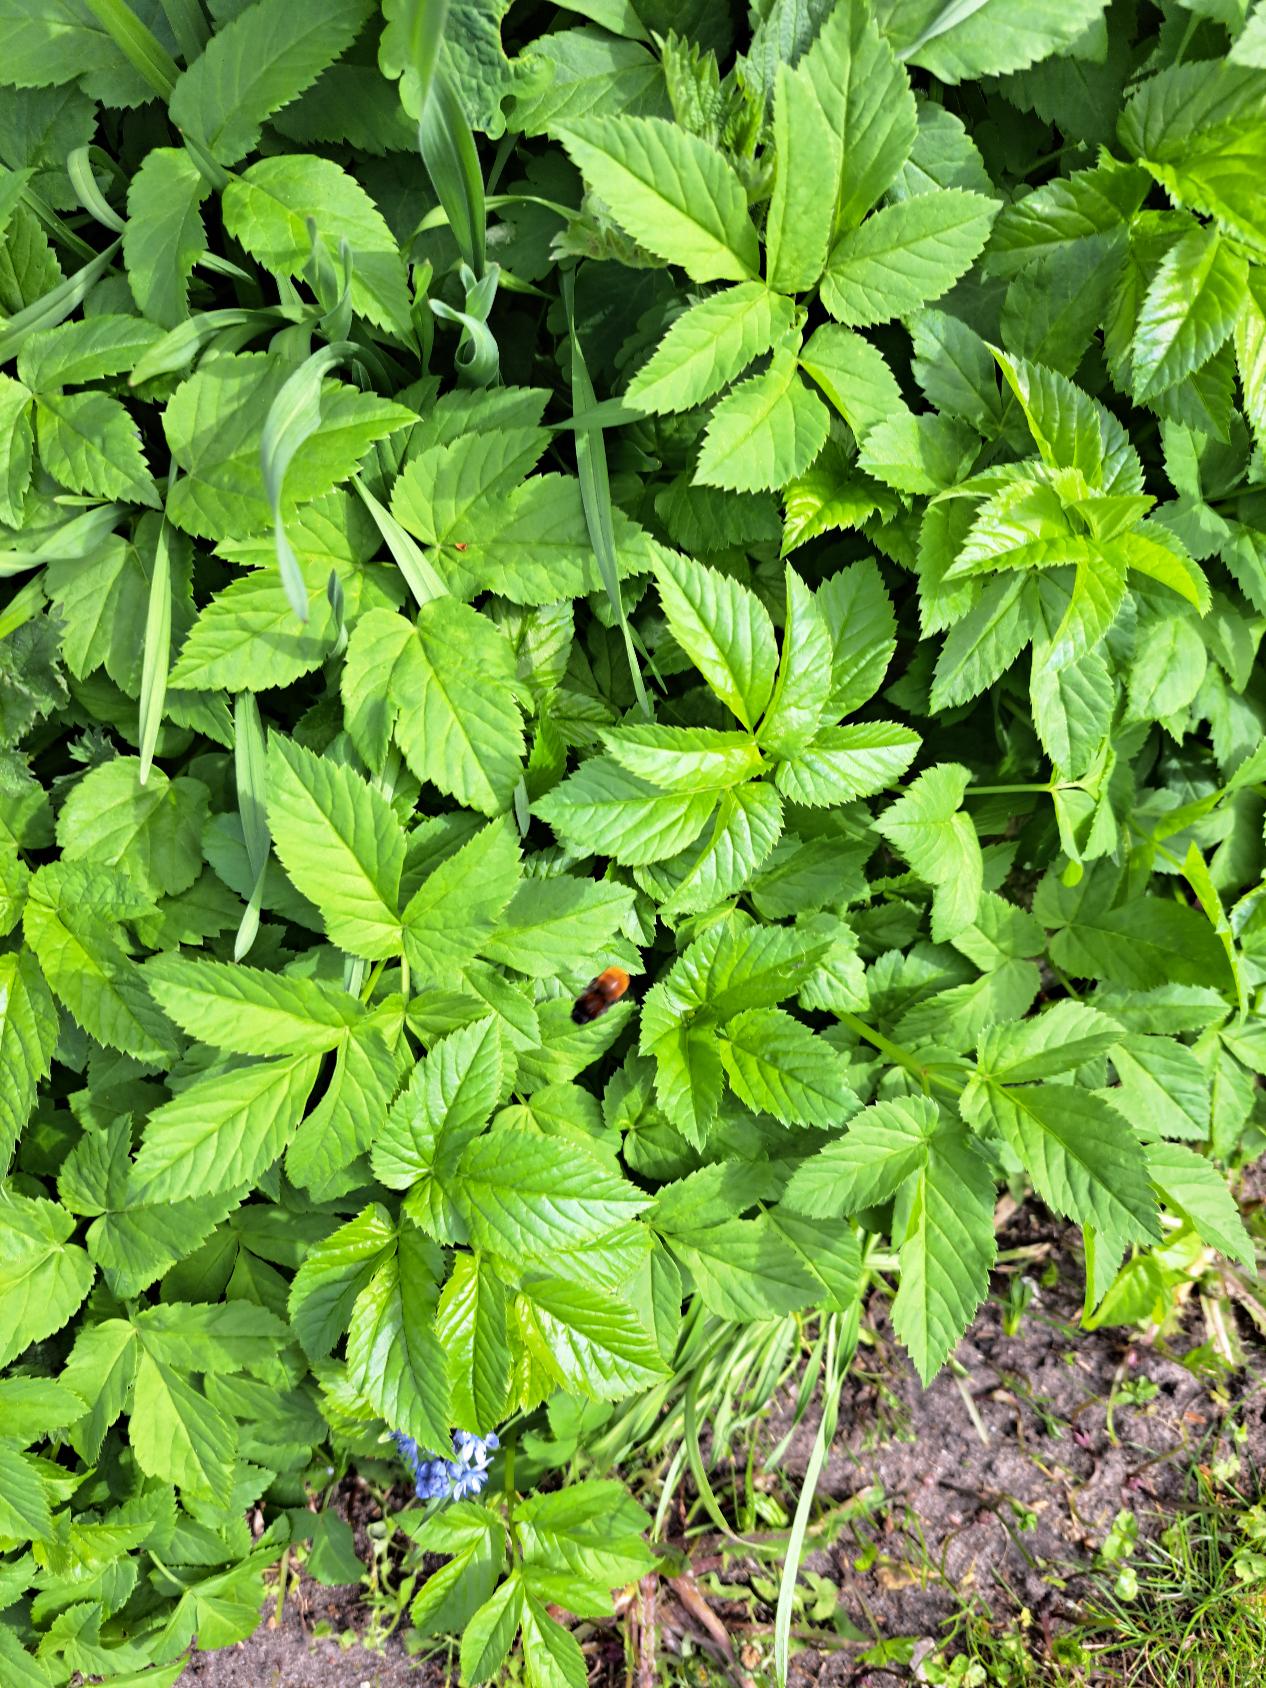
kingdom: Animalia
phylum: Arthropoda
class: Insecta
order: Hymenoptera
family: Andrenidae
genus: Andrena
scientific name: Andrena fulva
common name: Rødpelset jordbi
